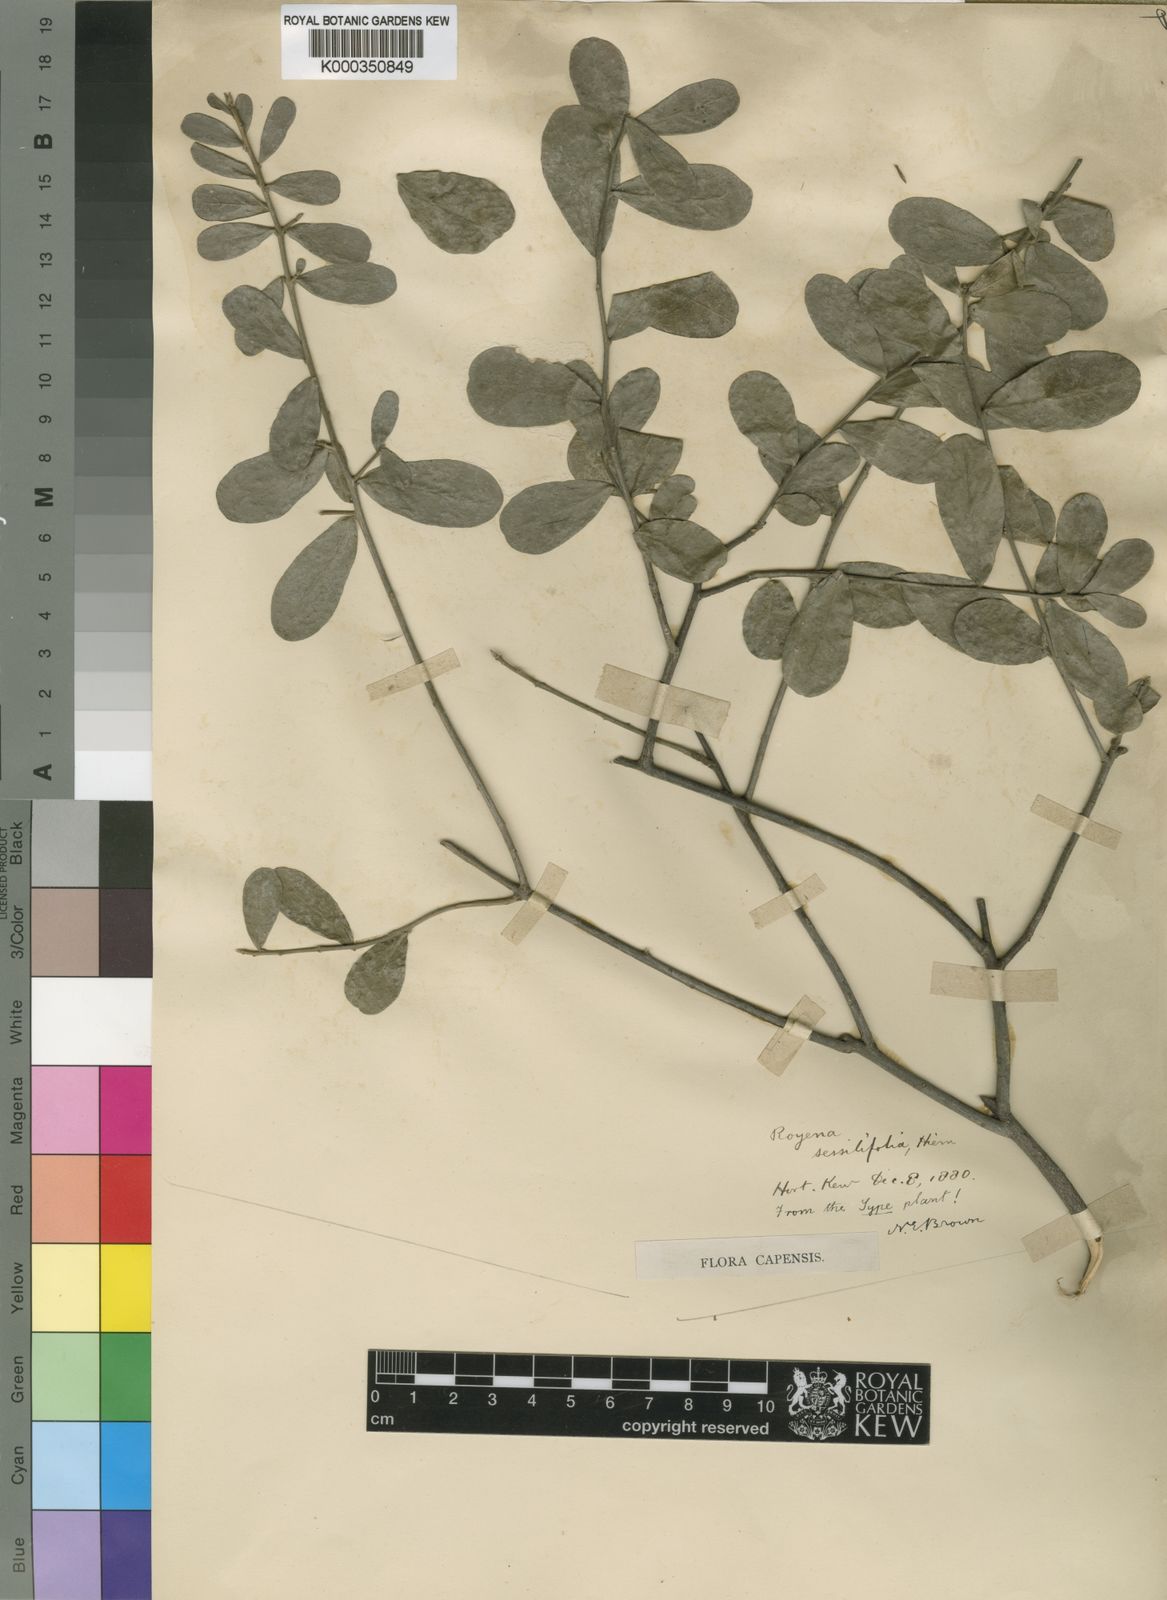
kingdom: Plantae
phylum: Tracheophyta
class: Magnoliopsida
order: Ericales
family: Ebenaceae
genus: Diospyros
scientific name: Diospyros
